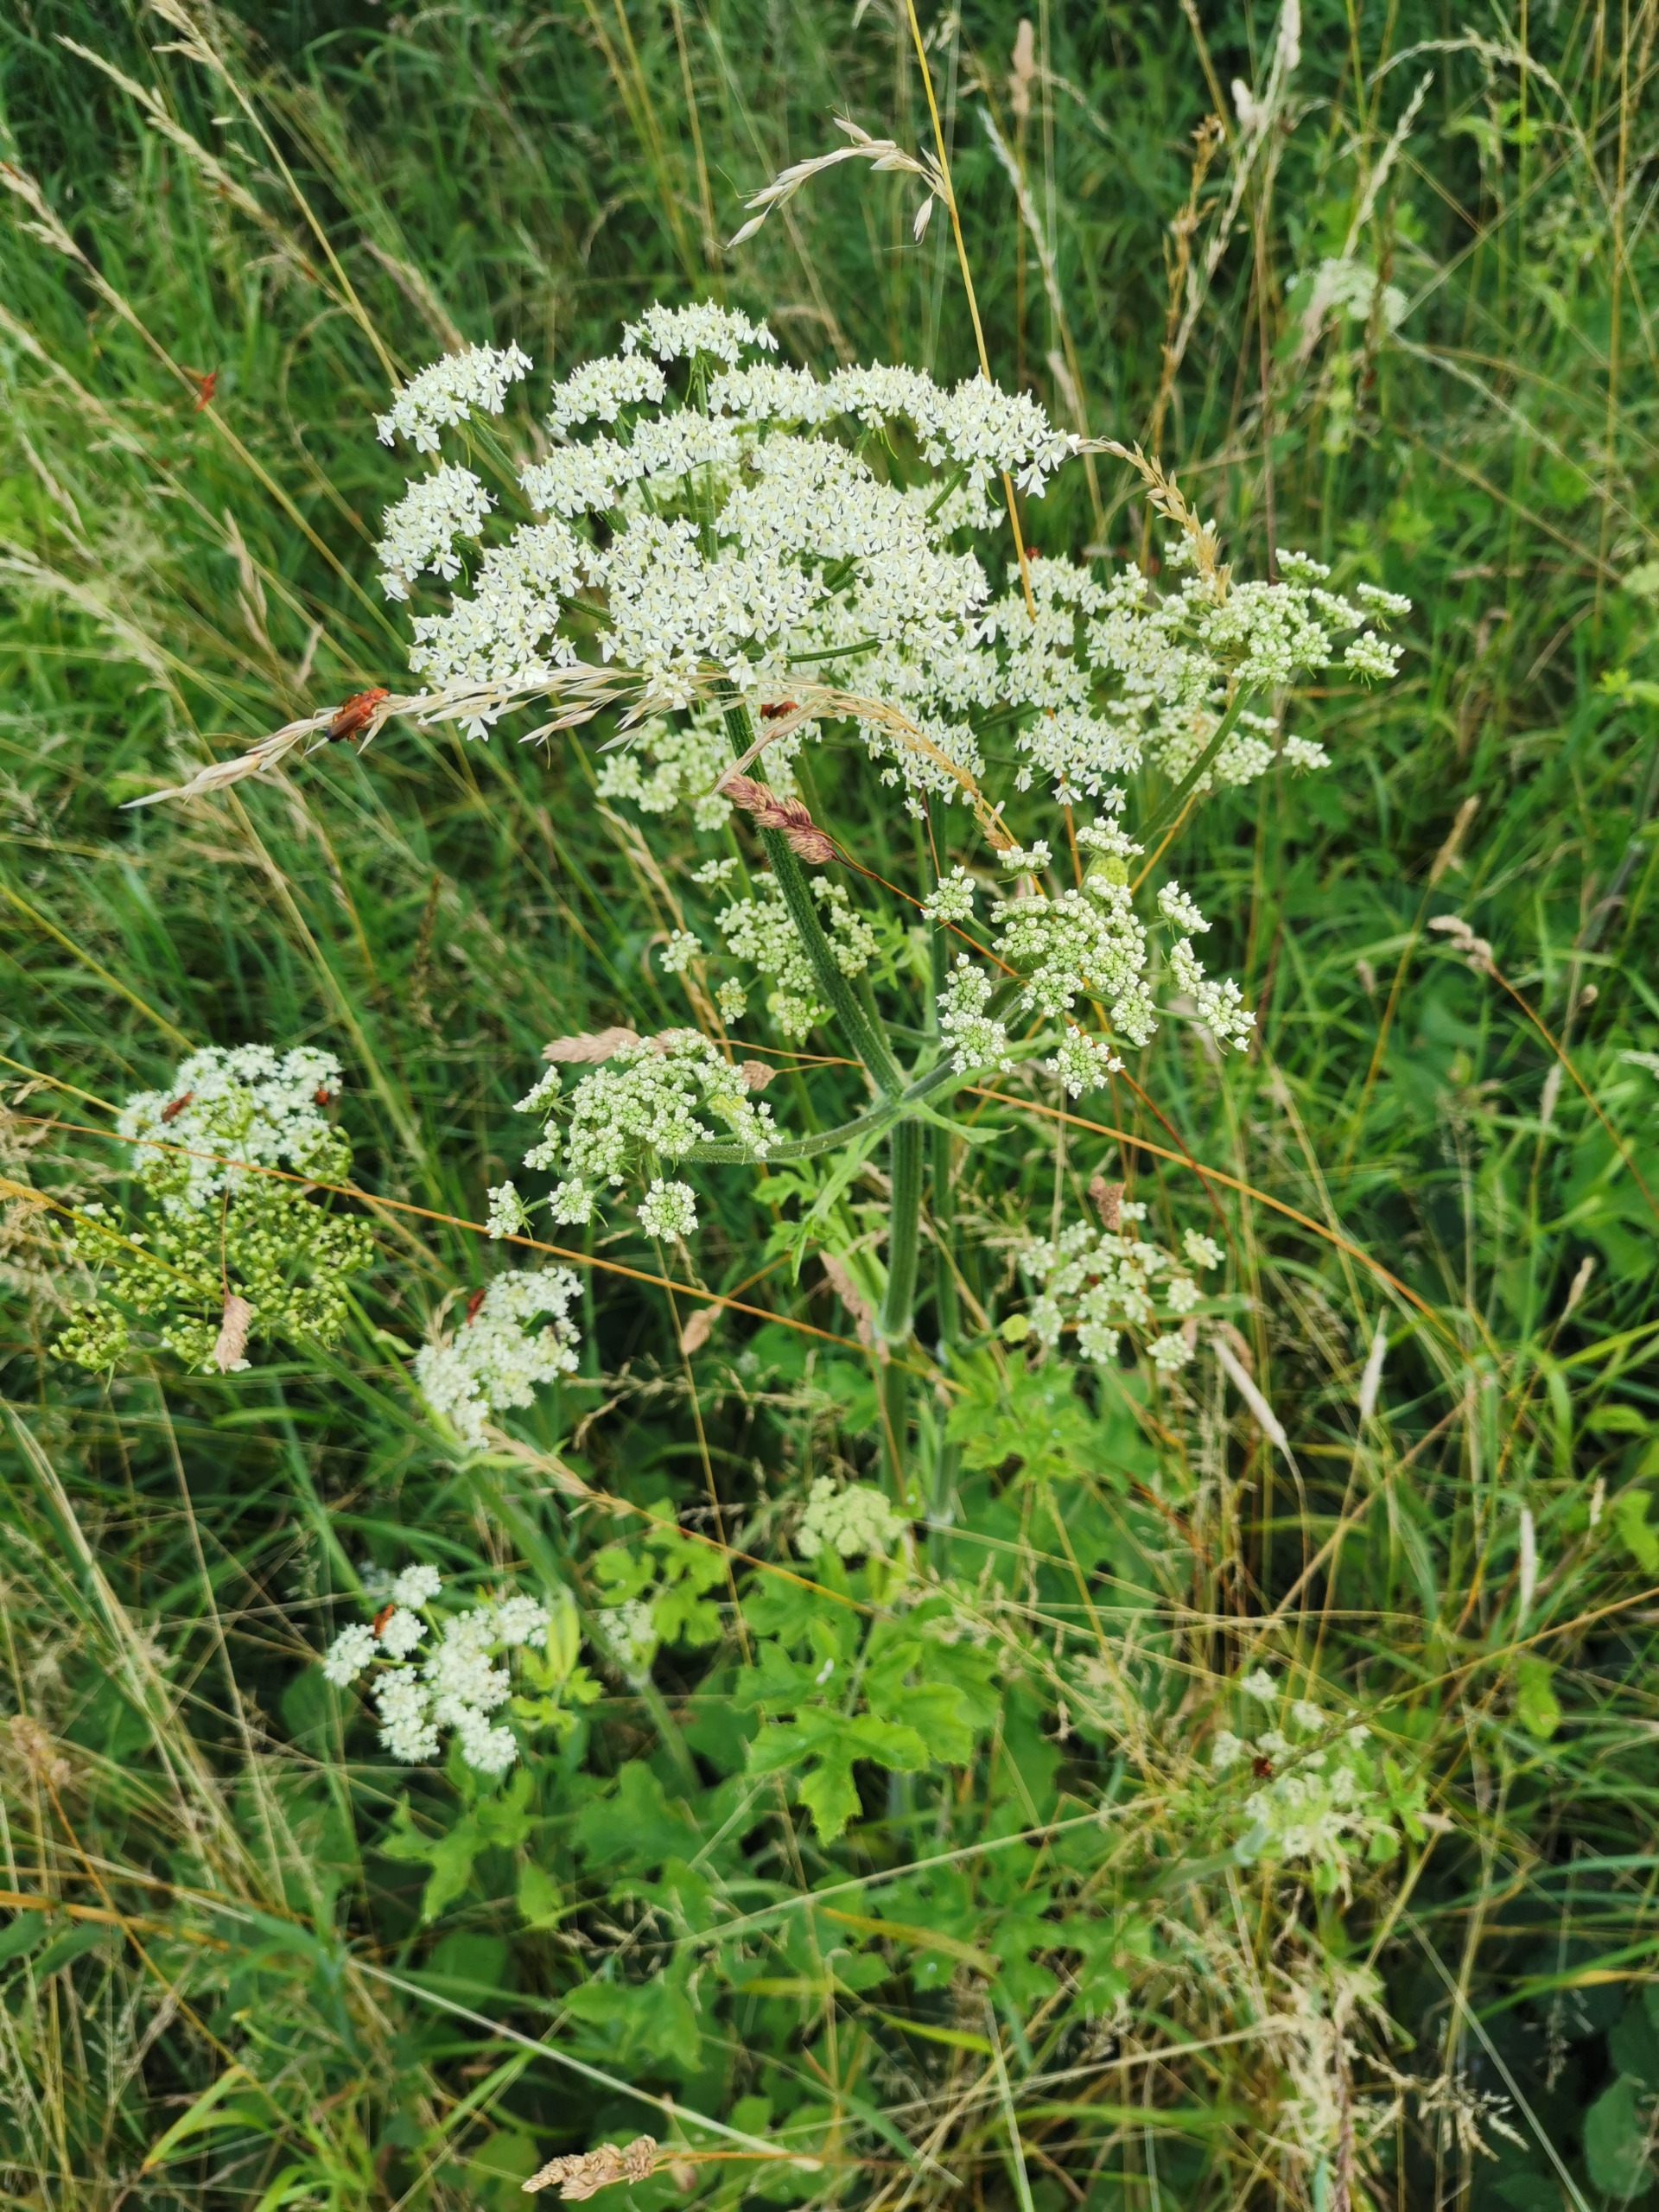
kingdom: Plantae
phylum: Tracheophyta
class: Magnoliopsida
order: Apiales
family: Apiaceae
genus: Heracleum
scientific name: Heracleum sphondylium
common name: Almindelig bjørneklo
